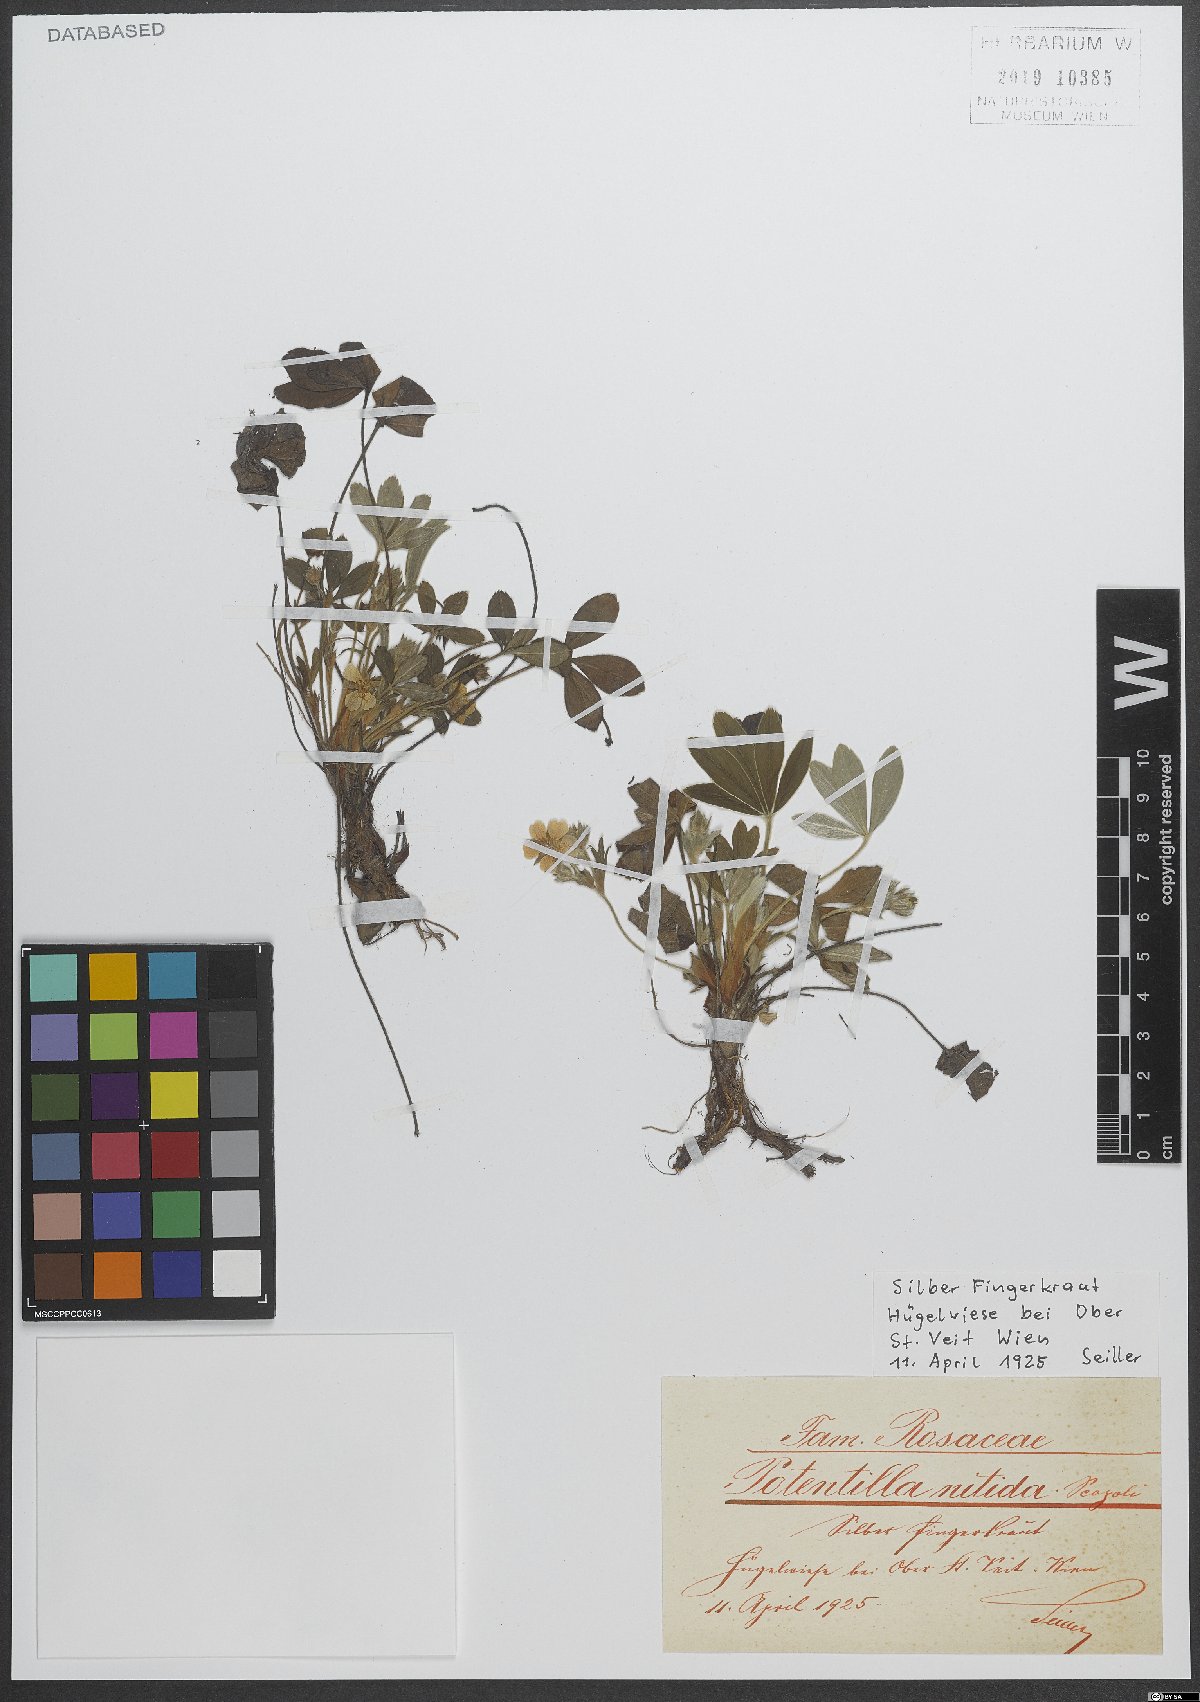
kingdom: Plantae
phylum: Tracheophyta
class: Magnoliopsida
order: Rosales
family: Rosaceae
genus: Potentilla
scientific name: Potentilla nitida
